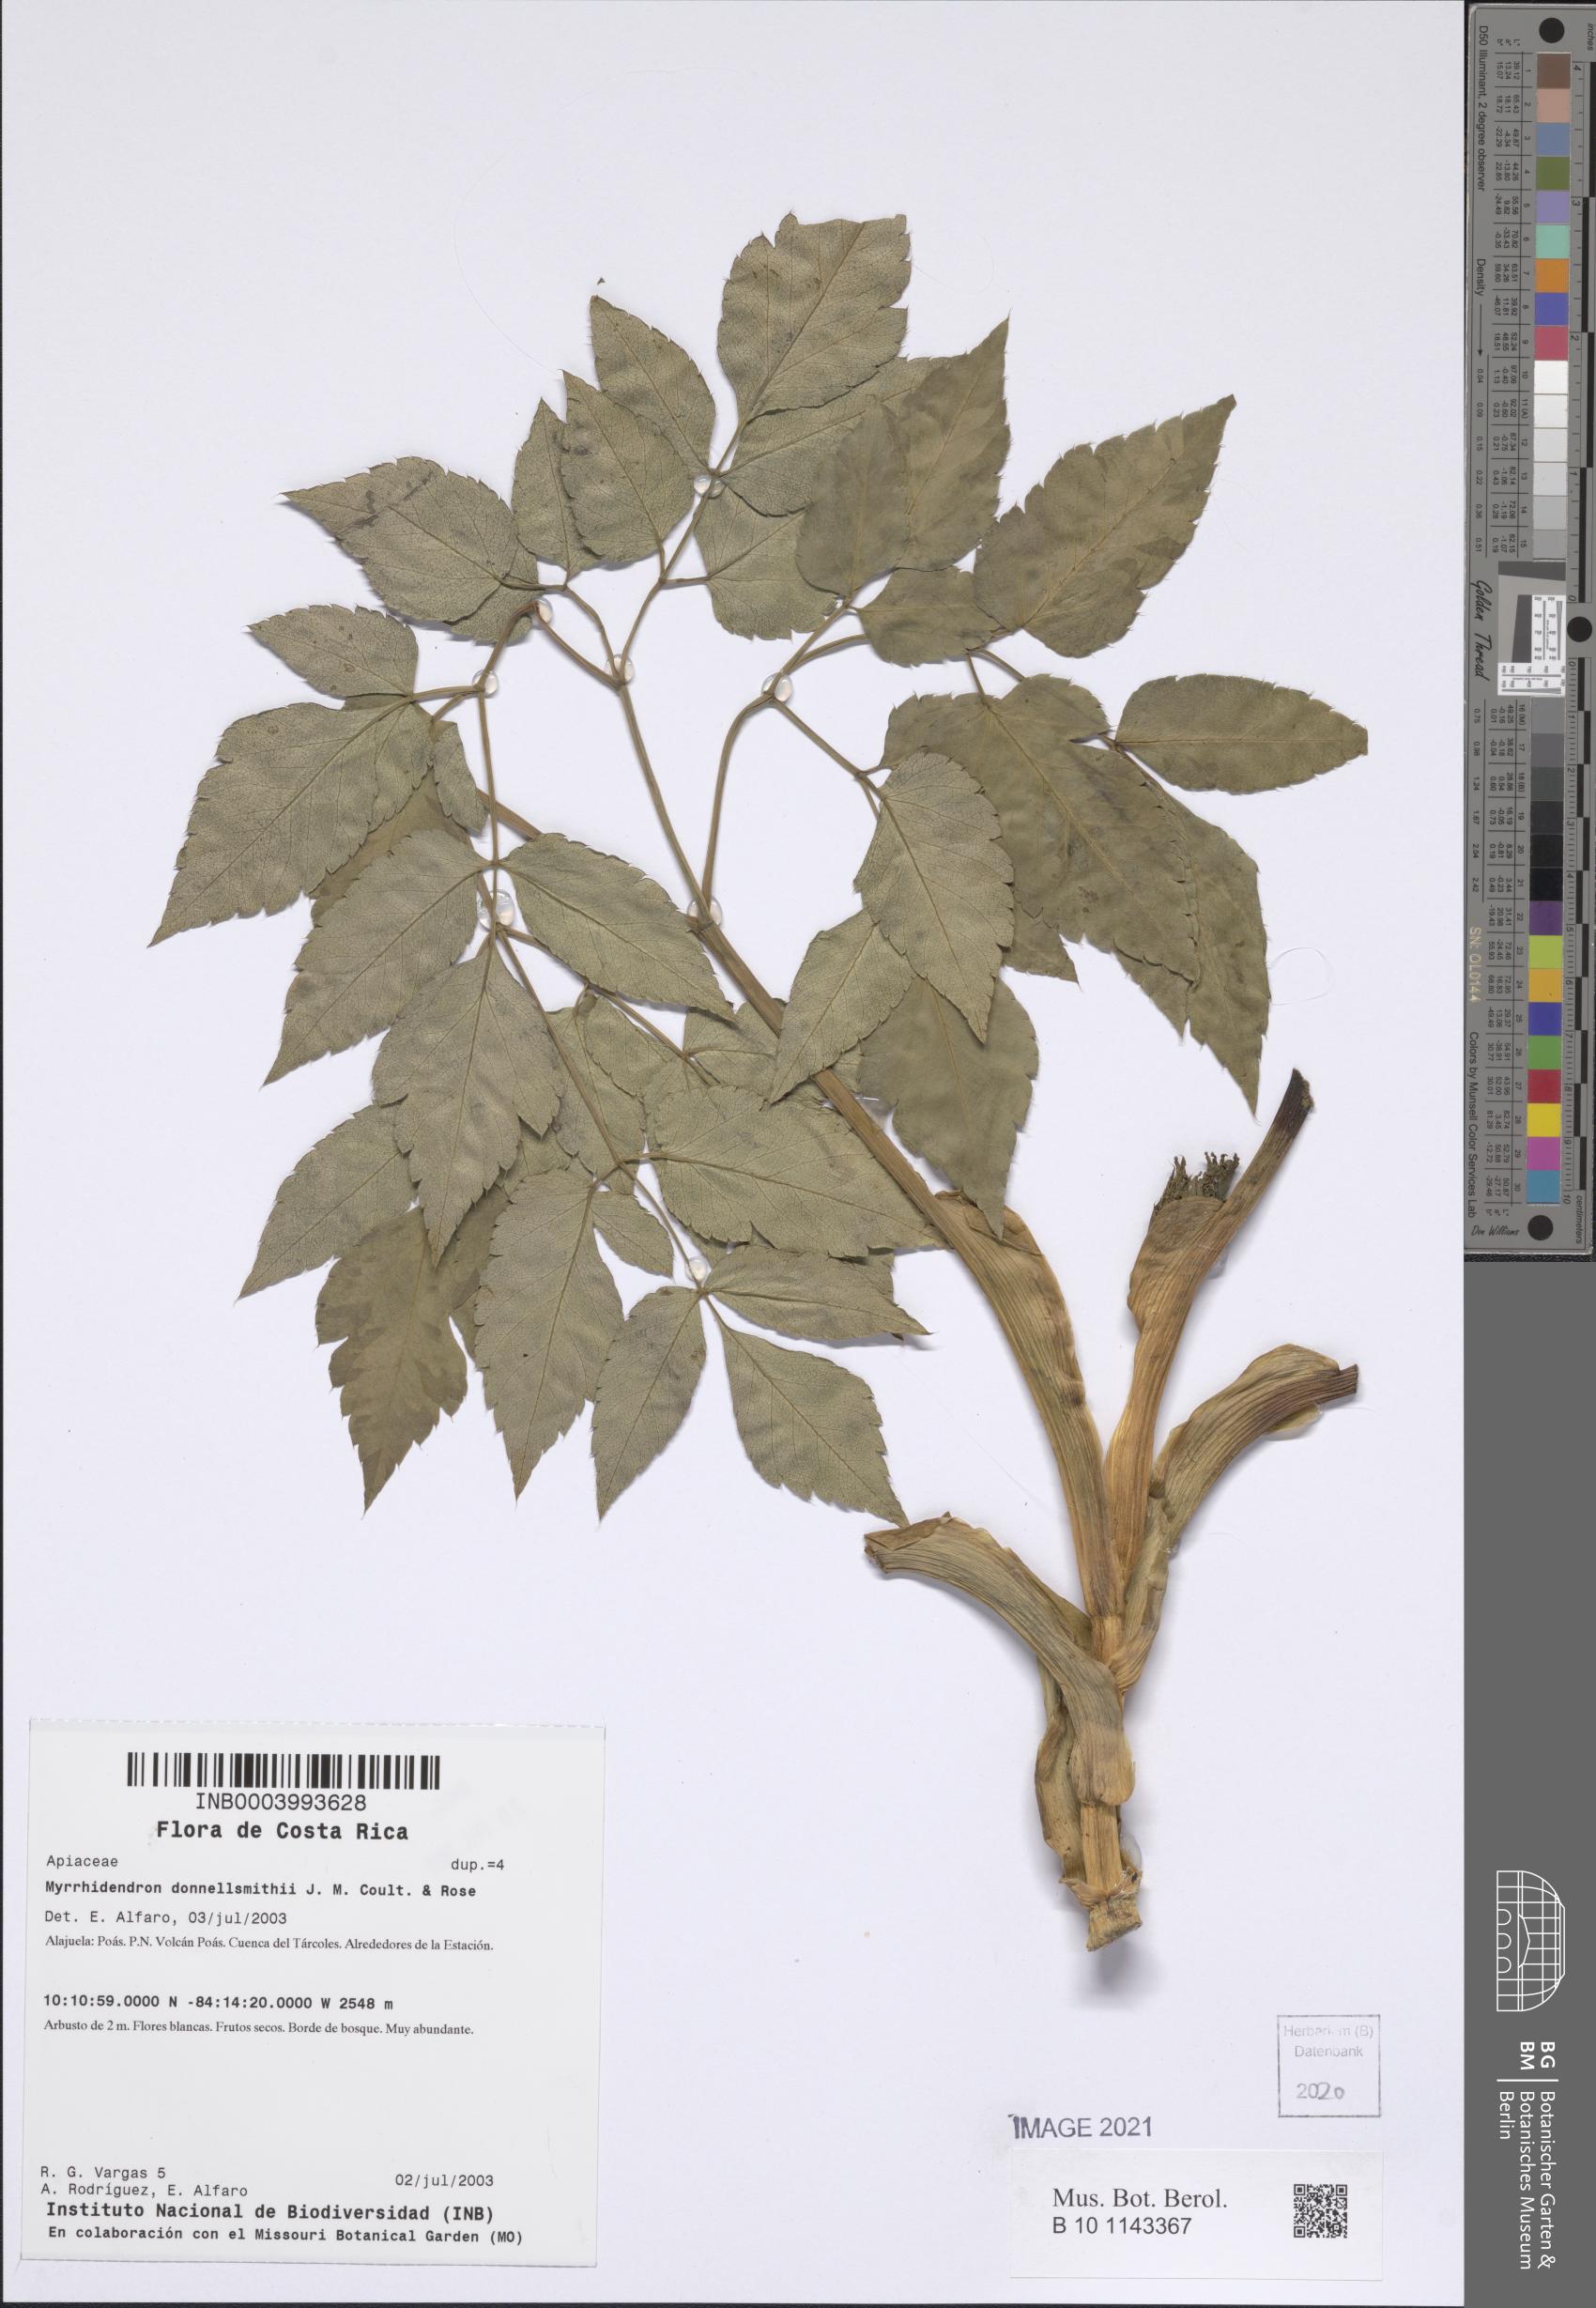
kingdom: Plantae
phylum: Tracheophyta
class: Magnoliopsida
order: Apiales
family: Apiaceae
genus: Myrrhidendron
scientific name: Myrrhidendron donnellsmithii
